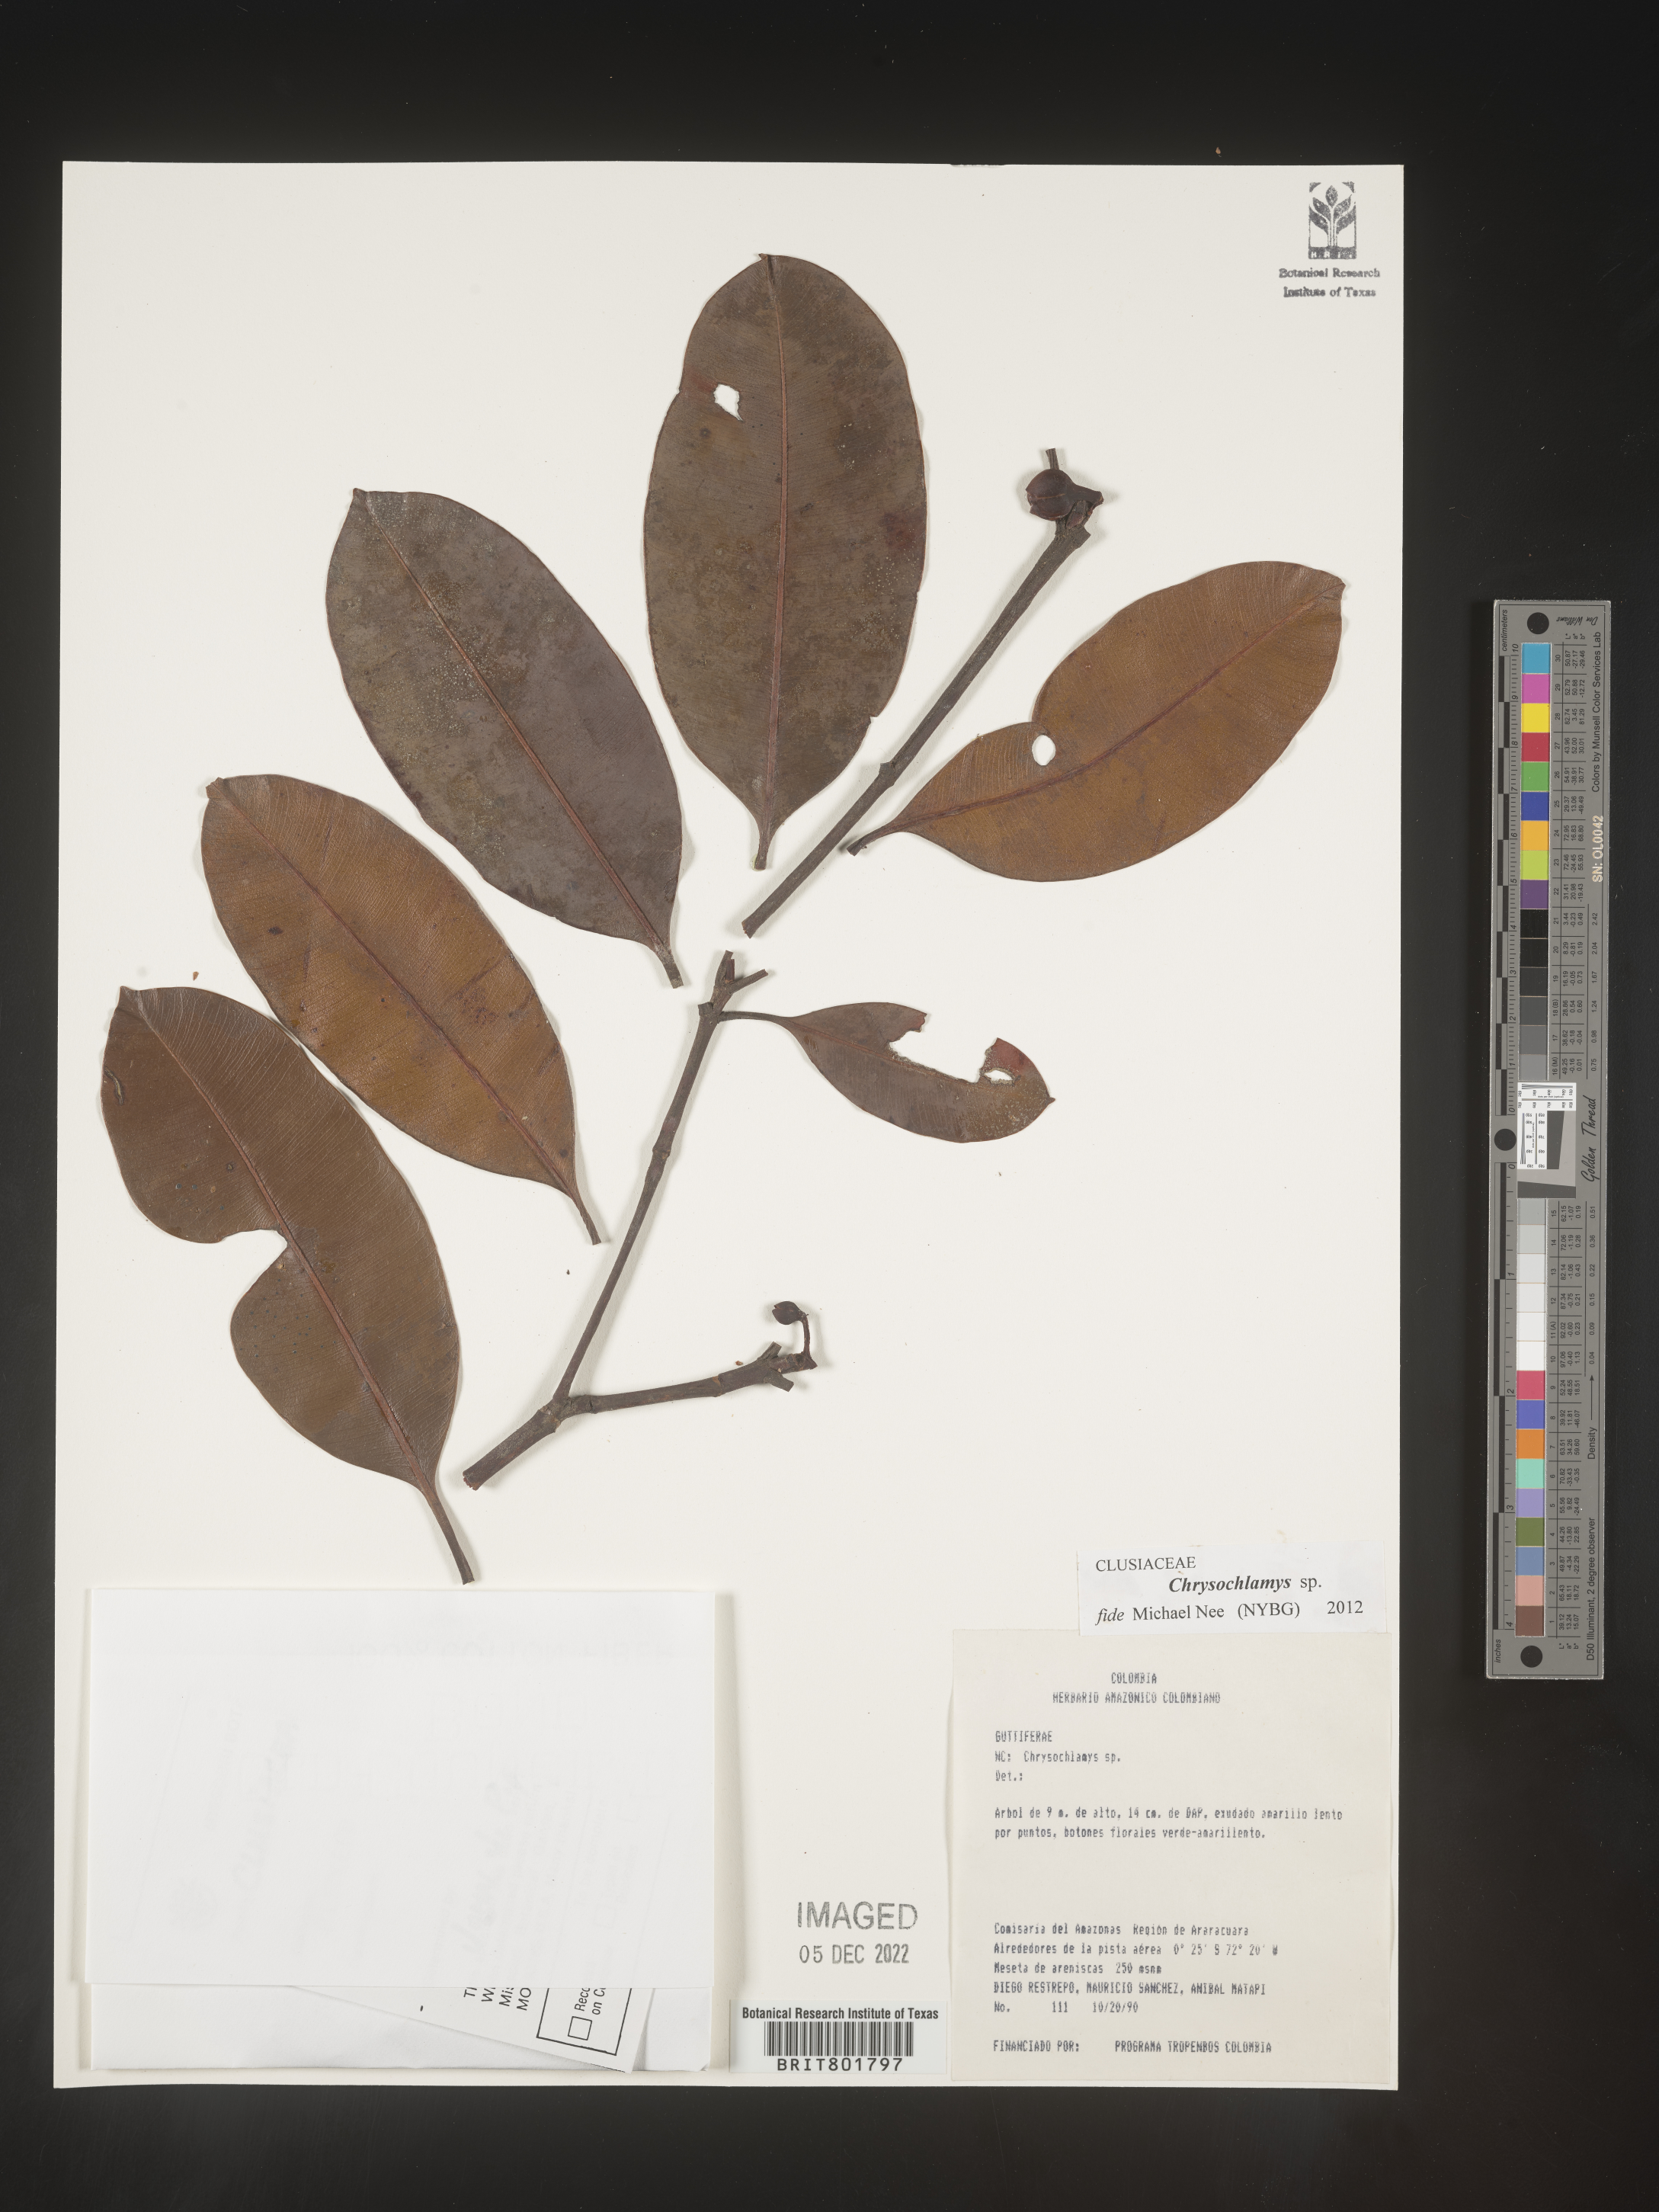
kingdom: Plantae
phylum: Tracheophyta
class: Magnoliopsida
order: Malpighiales
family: Clusiaceae
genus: Chrysochlamys
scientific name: Chrysochlamys
